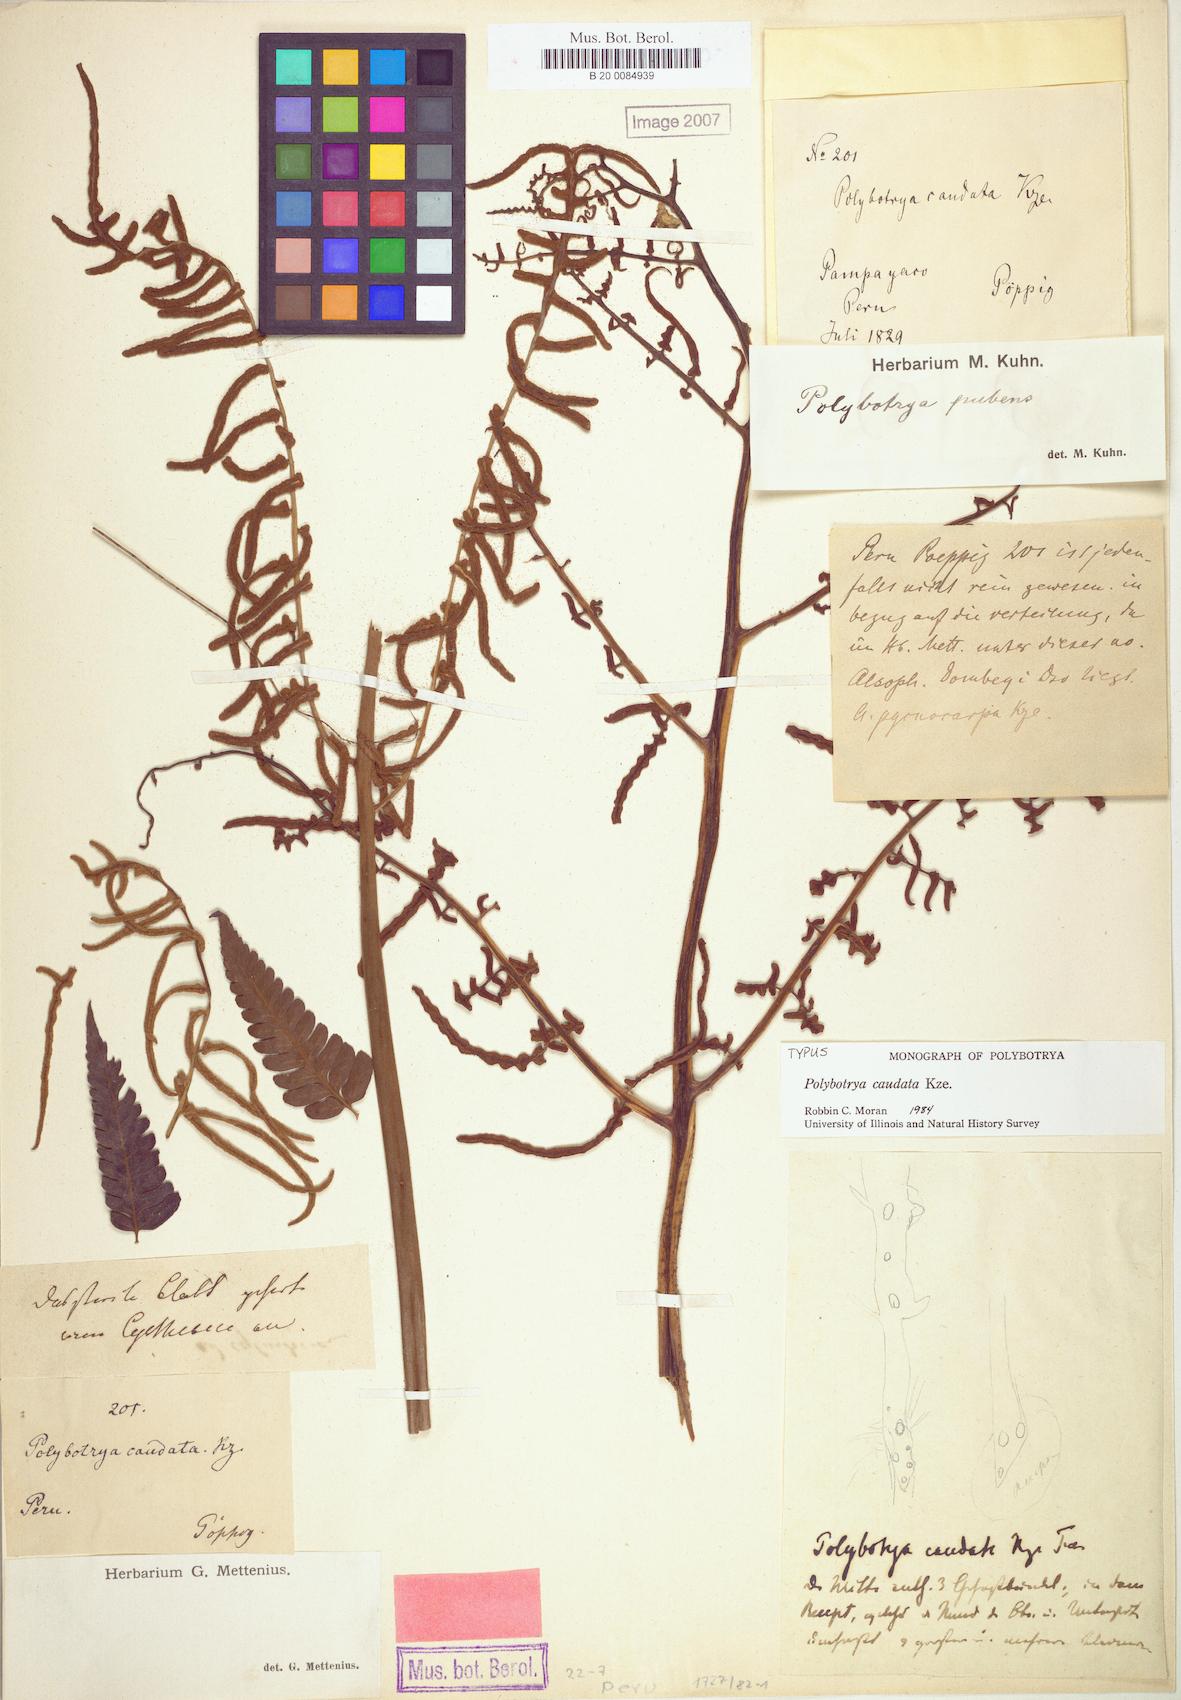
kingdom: Plantae
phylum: Tracheophyta
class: Polypodiopsida
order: Polypodiales
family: Dryopteridaceae
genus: Polybotrya
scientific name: Polybotrya caudata
